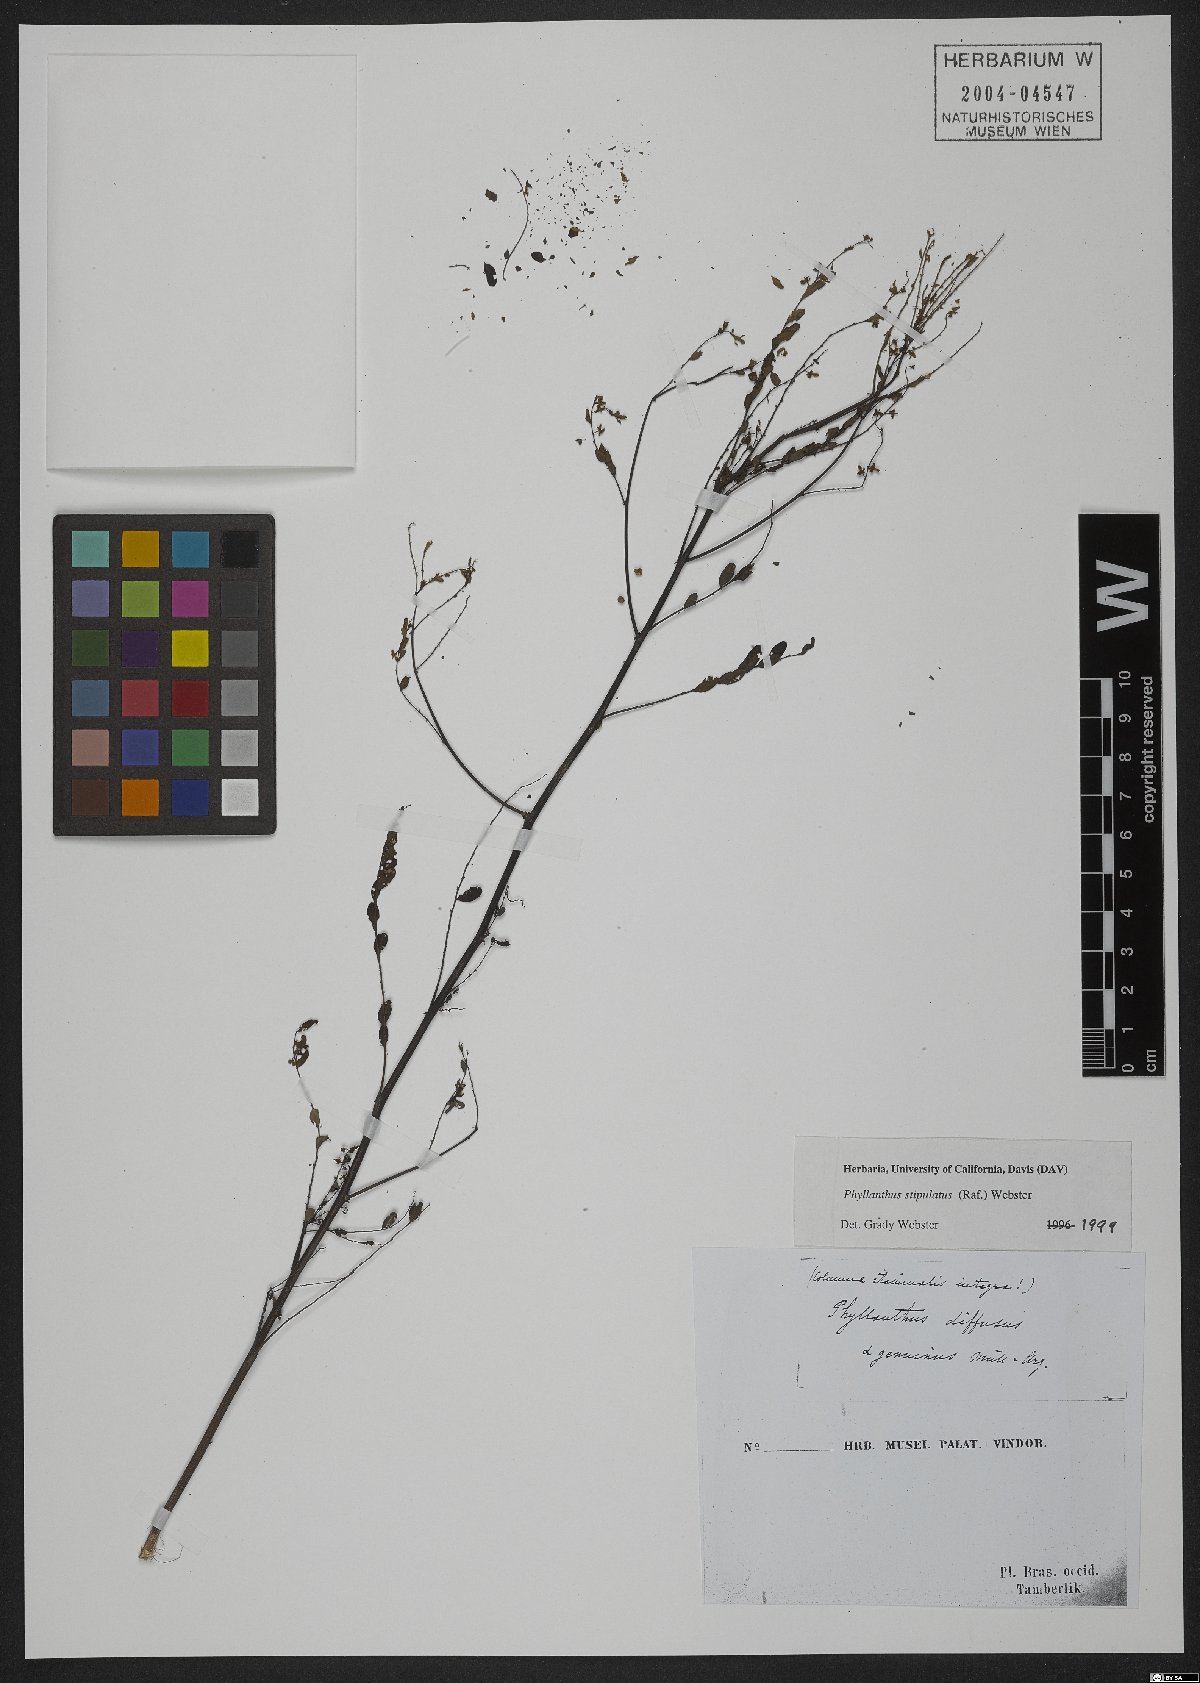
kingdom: Plantae
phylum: Tracheophyta
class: Magnoliopsida
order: Malpighiales
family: Phyllanthaceae
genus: Phyllanthus
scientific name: Phyllanthus stipulatus
